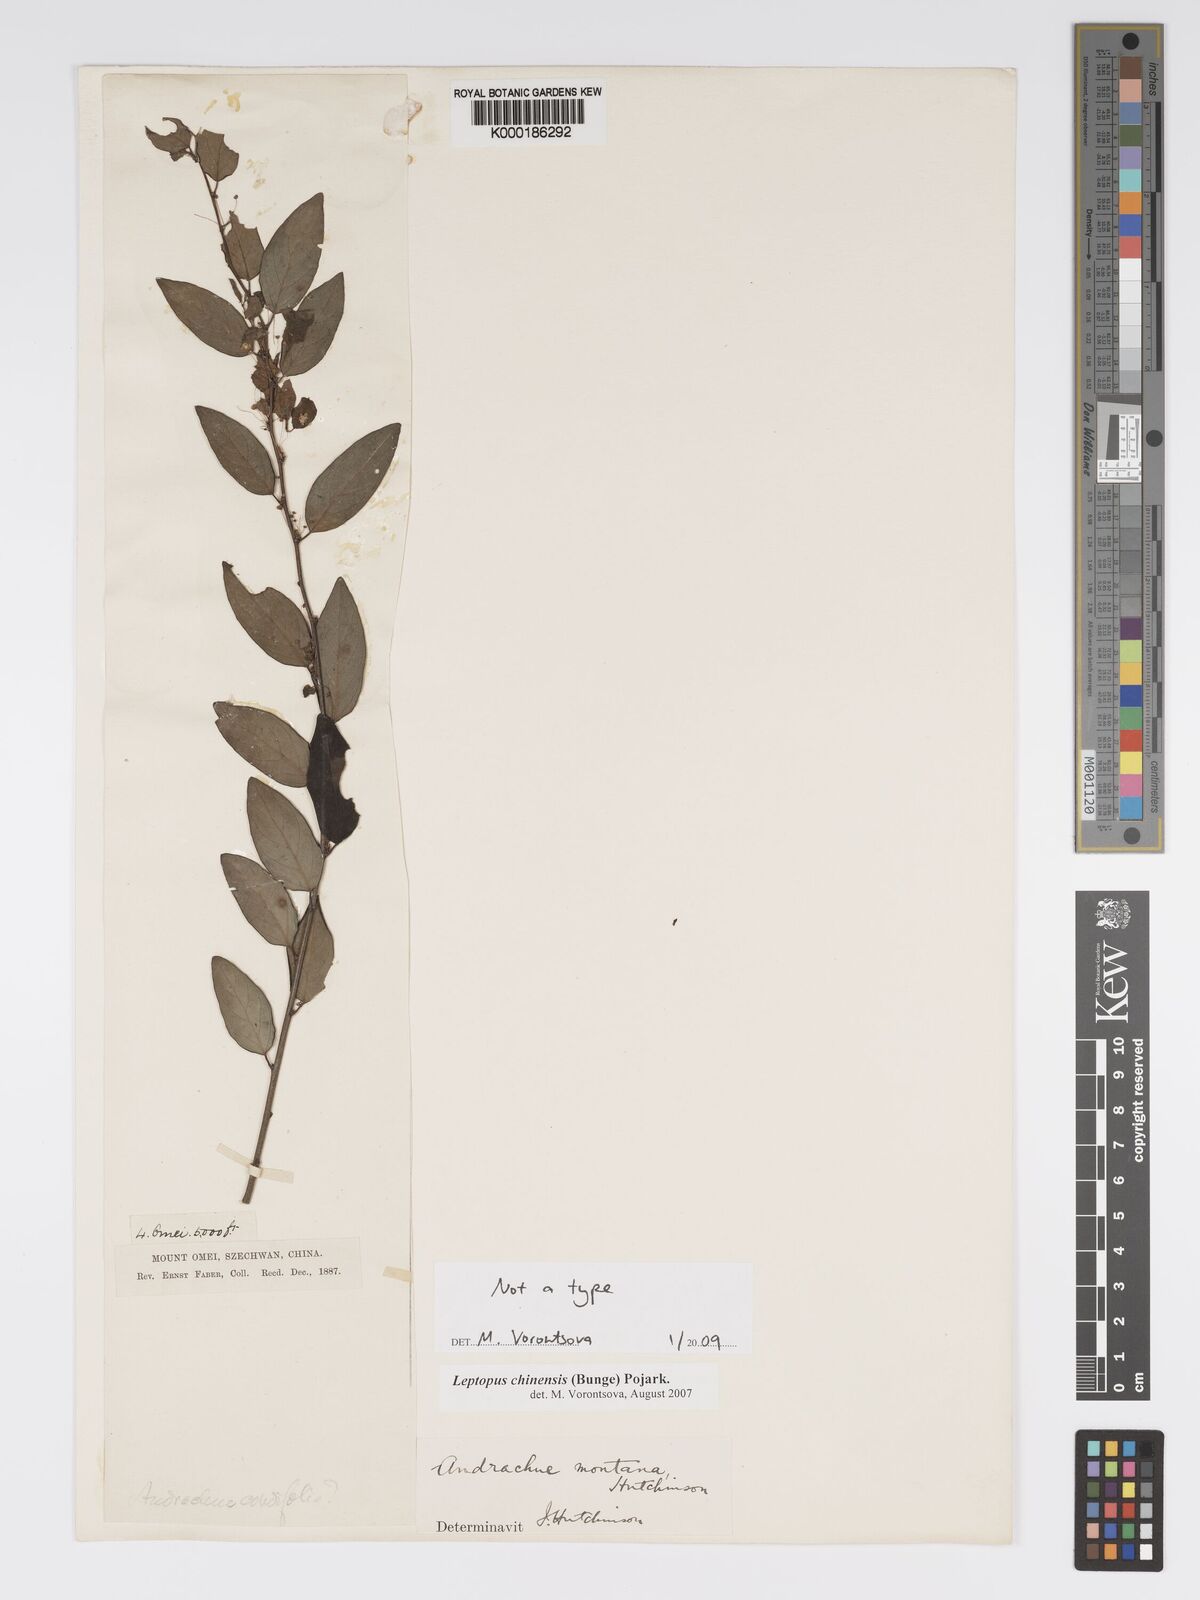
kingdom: Plantae
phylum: Tracheophyta
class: Magnoliopsida
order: Malpighiales
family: Phyllanthaceae
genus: Leptopus
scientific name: Leptopus chinensis
